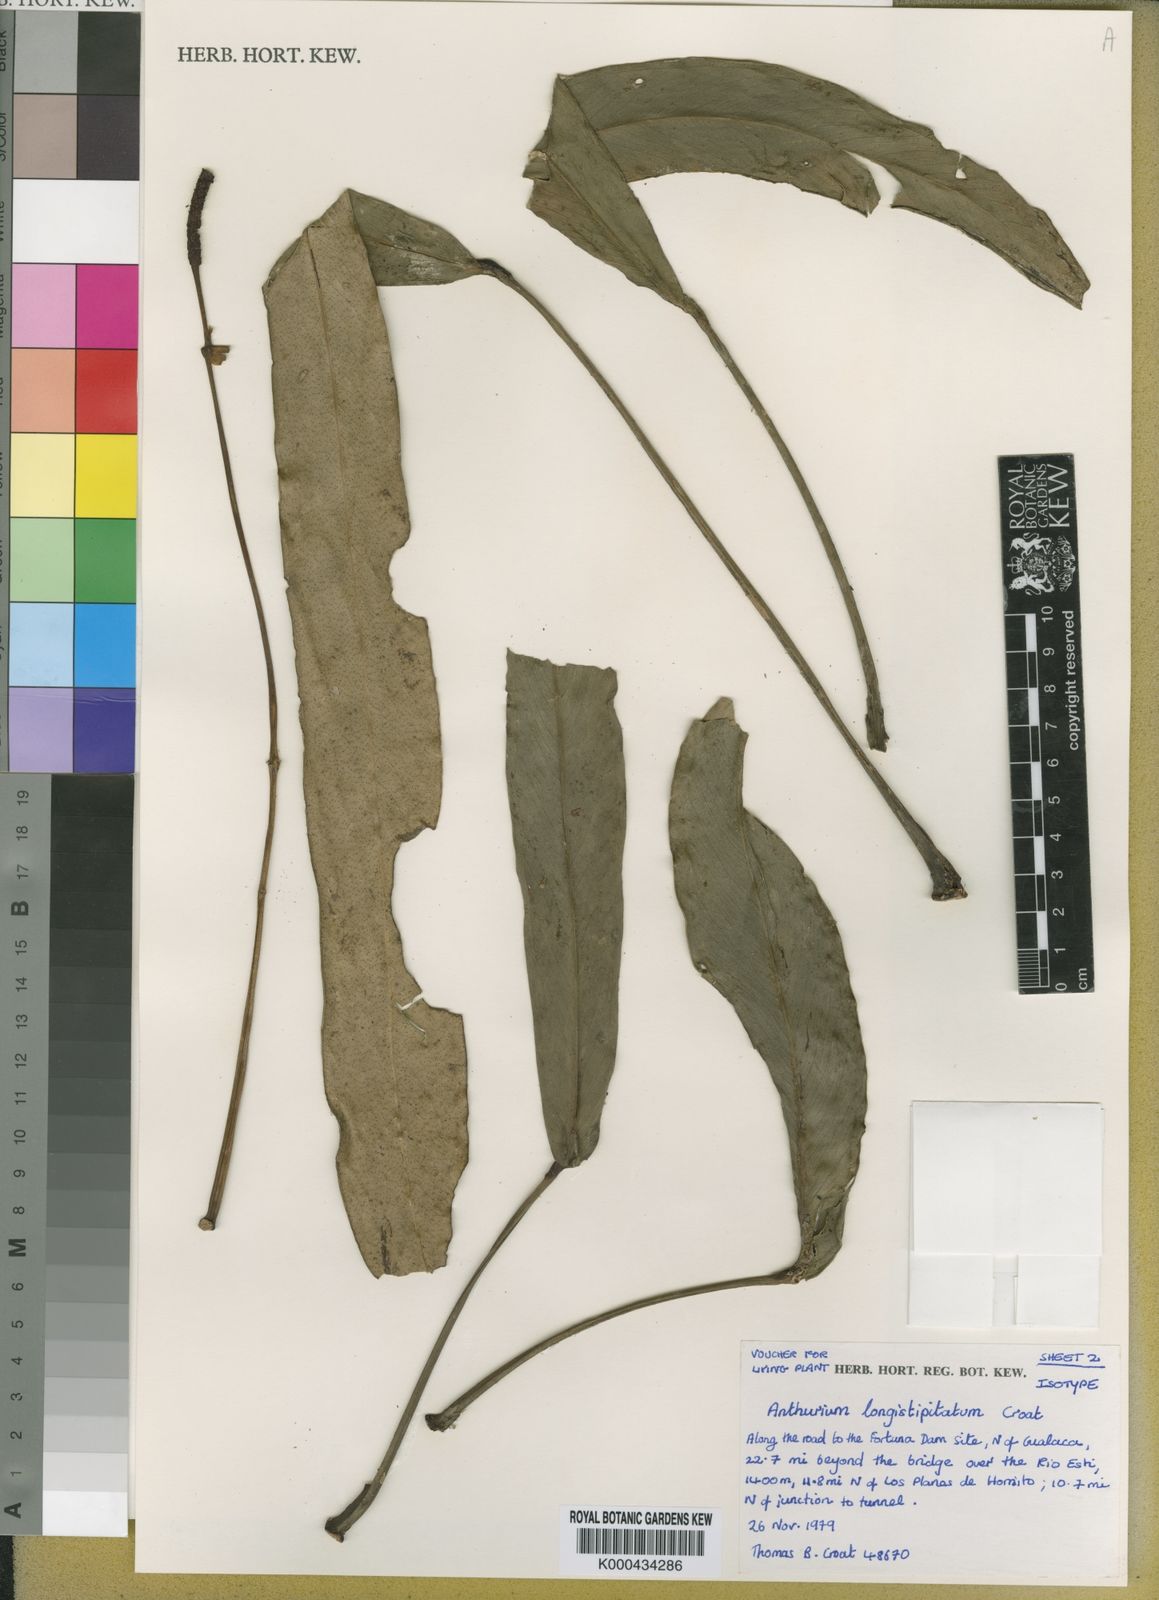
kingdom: Plantae
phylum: Tracheophyta
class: Liliopsida
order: Alismatales
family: Araceae
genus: Anthurium
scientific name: Anthurium longistipitatum
